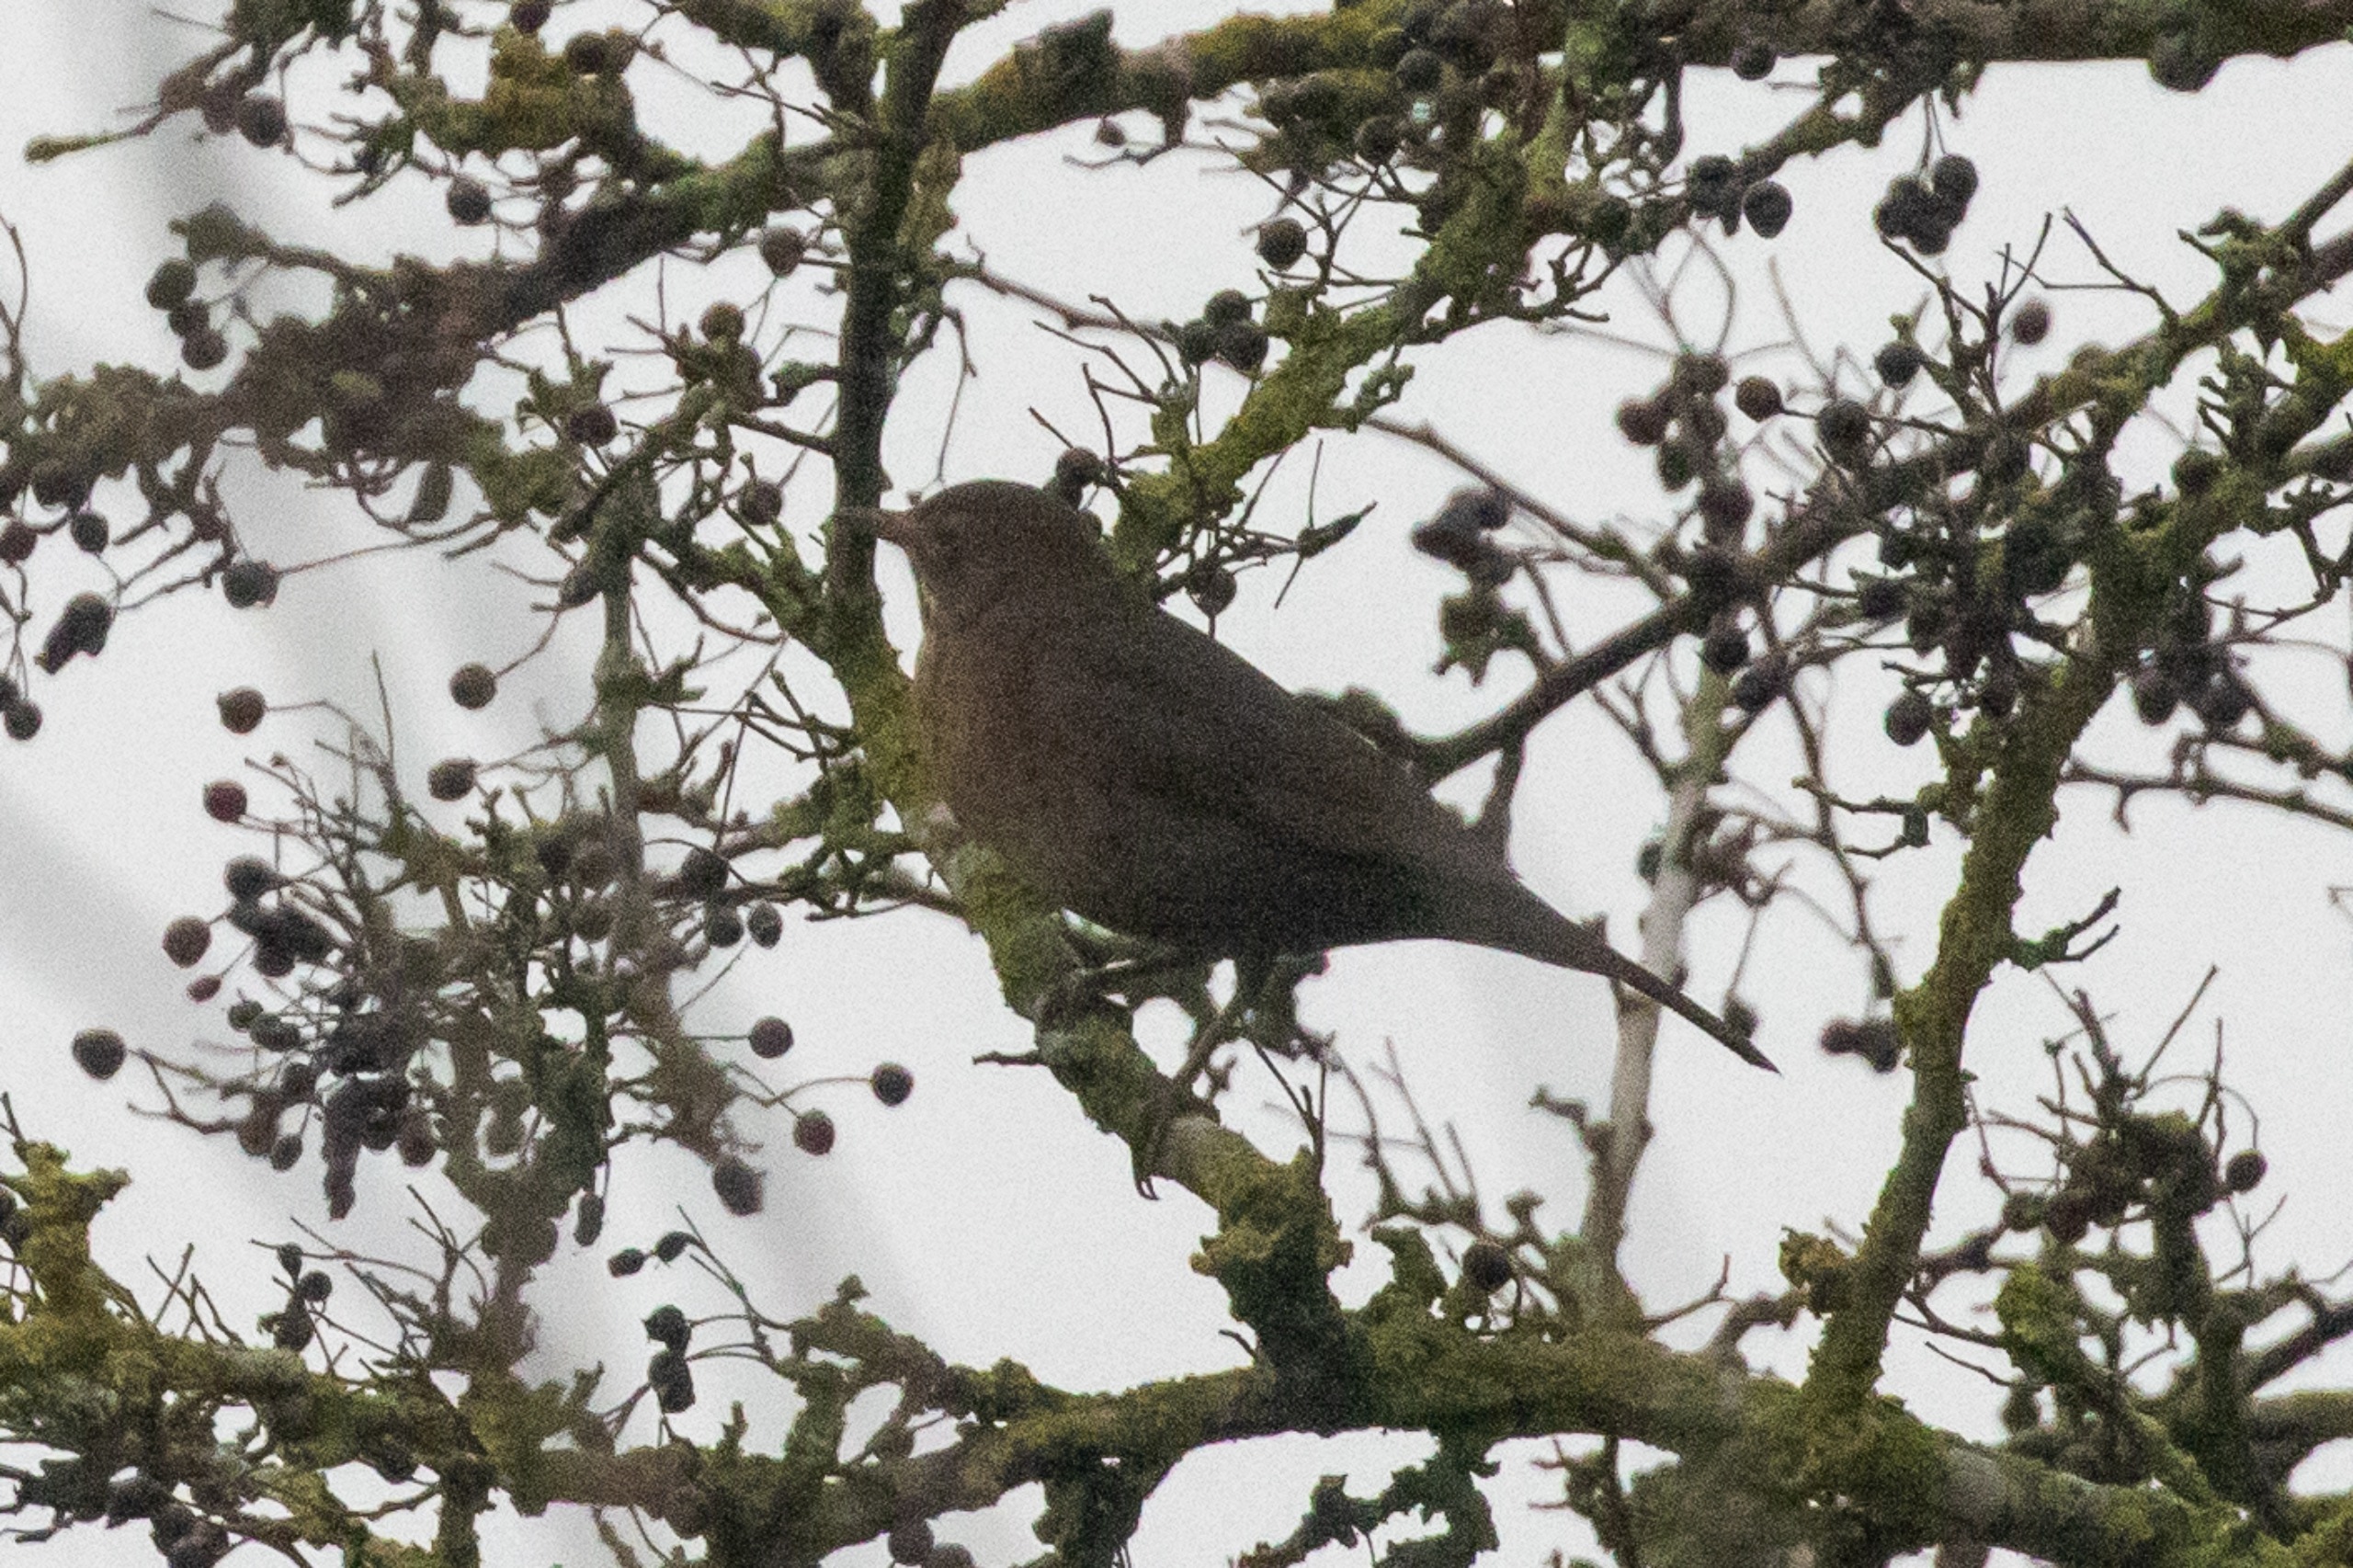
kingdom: Animalia
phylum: Chordata
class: Aves
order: Passeriformes
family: Turdidae
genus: Turdus
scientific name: Turdus merula
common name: Solsort
